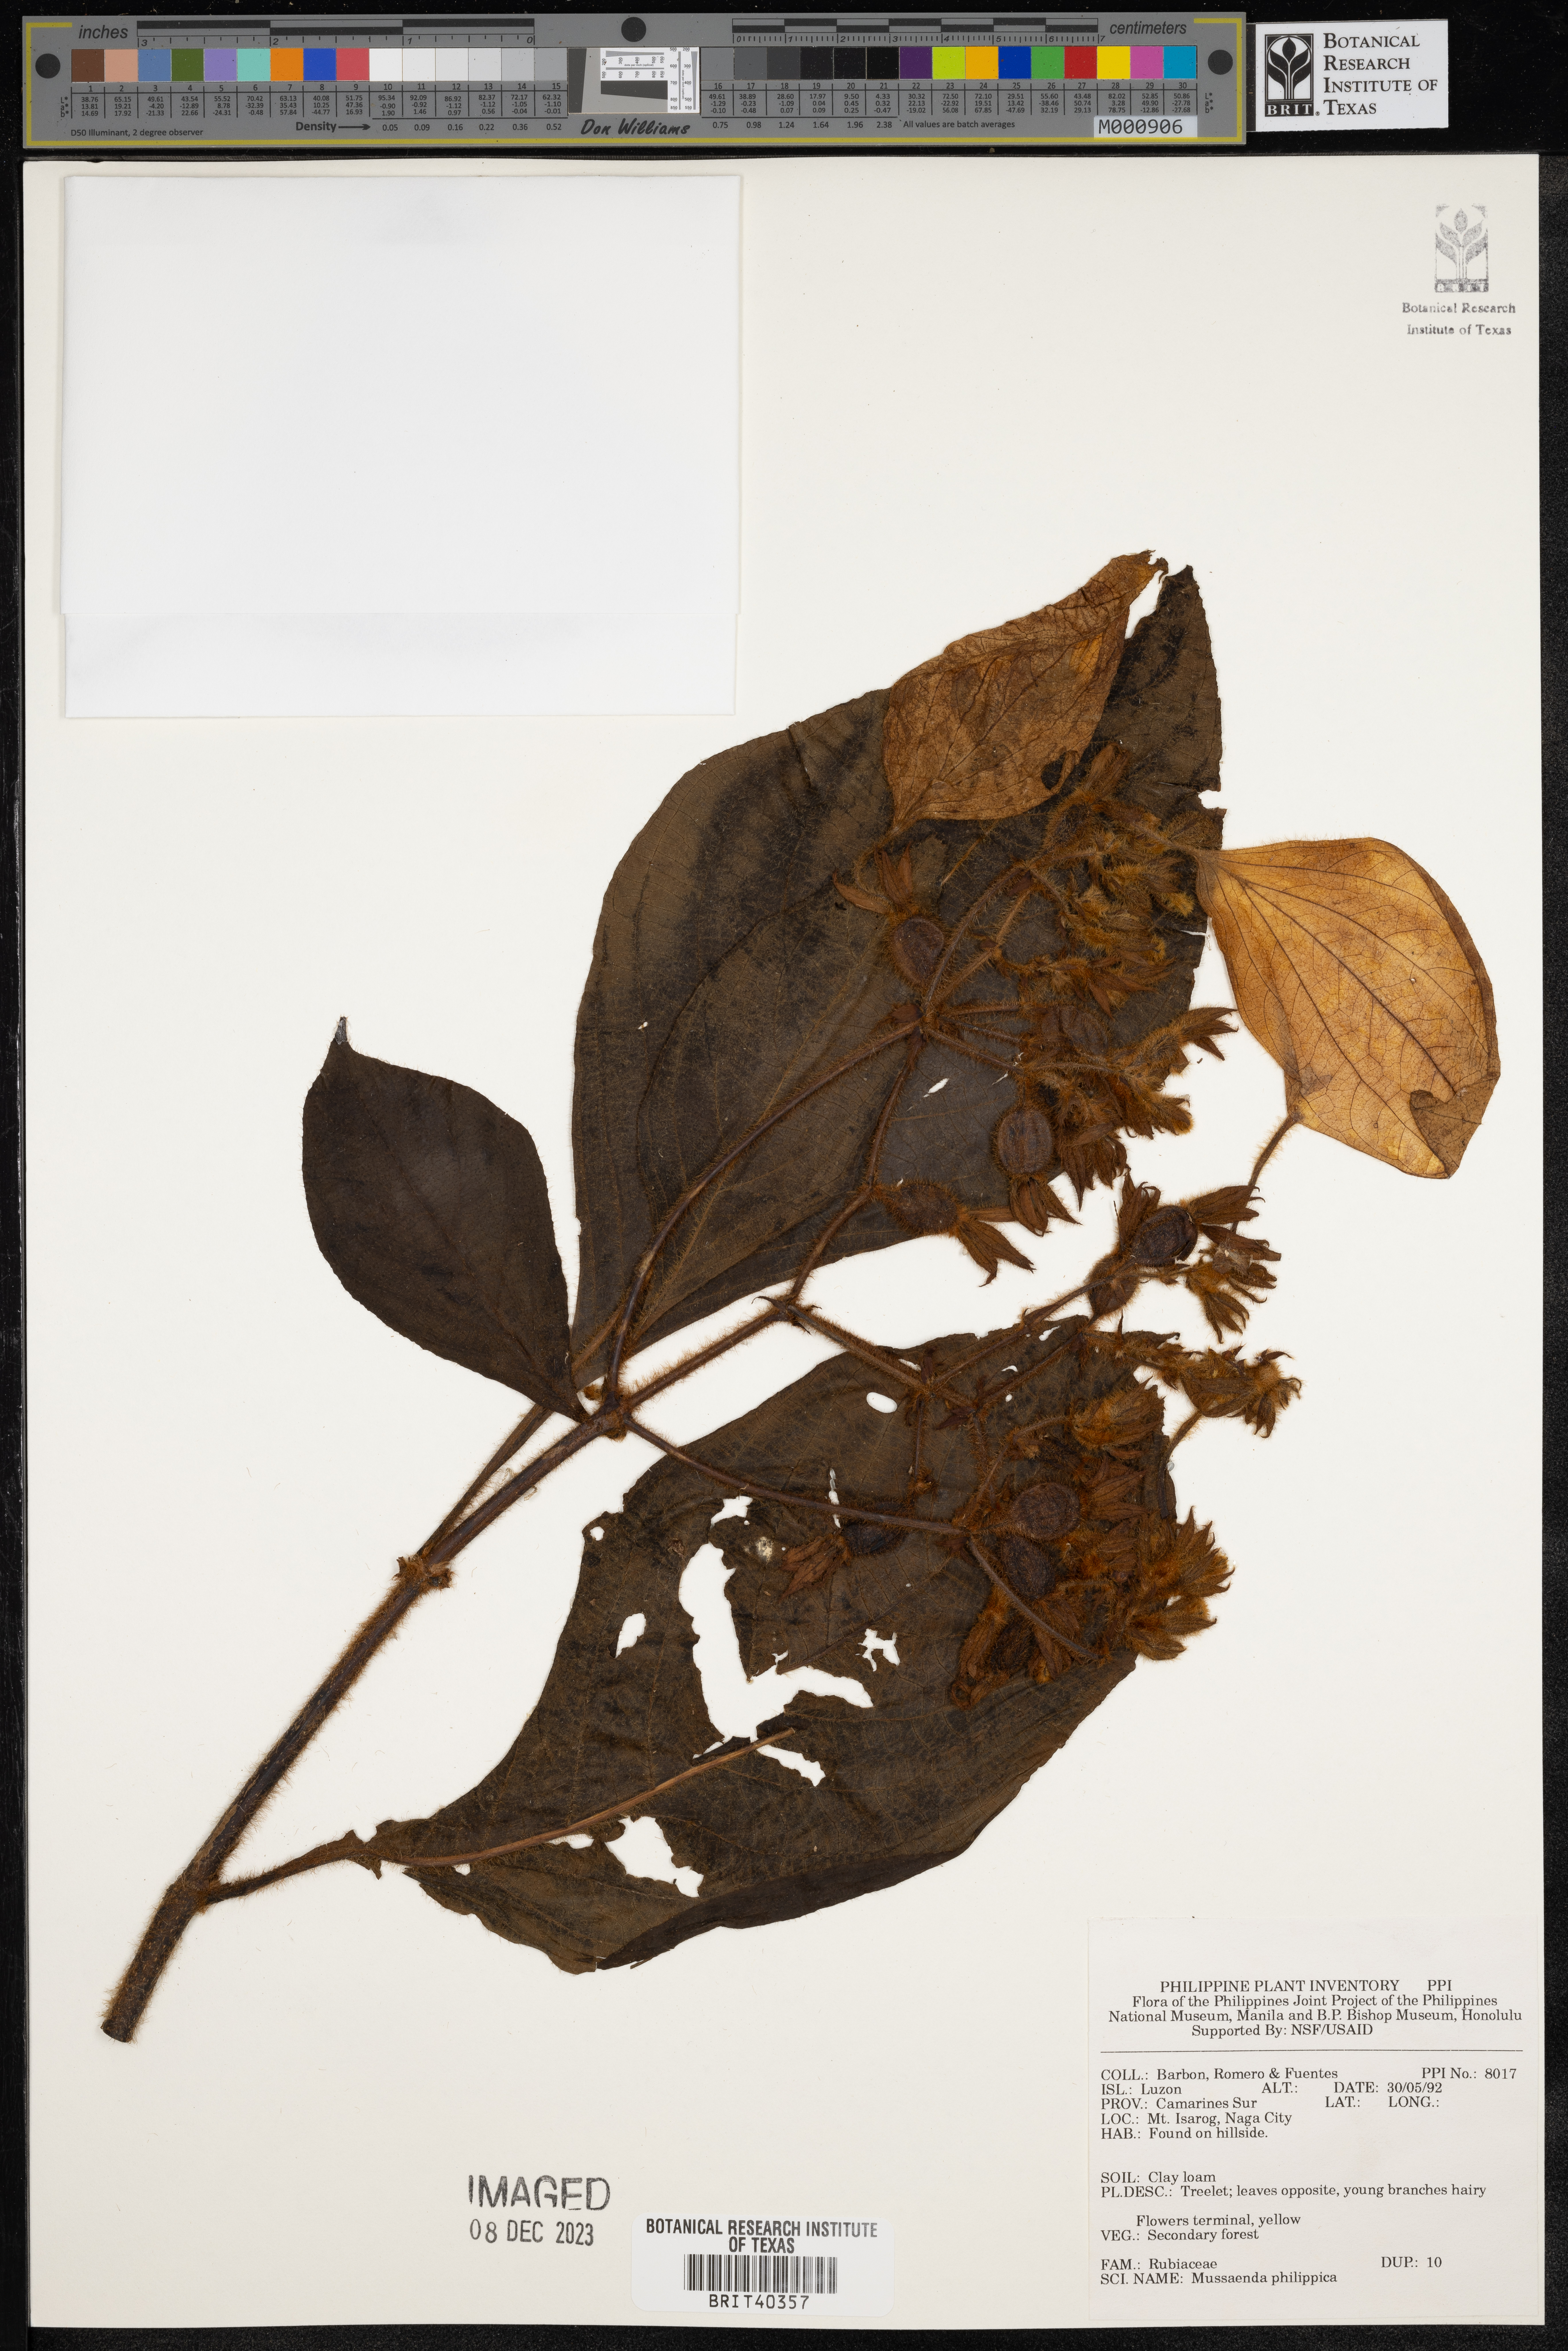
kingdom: Plantae
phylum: Tracheophyta
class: Magnoliopsida
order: Gentianales
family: Rubiaceae
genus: Mussaenda
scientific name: Mussaenda philippica
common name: Philippine mussaenda
